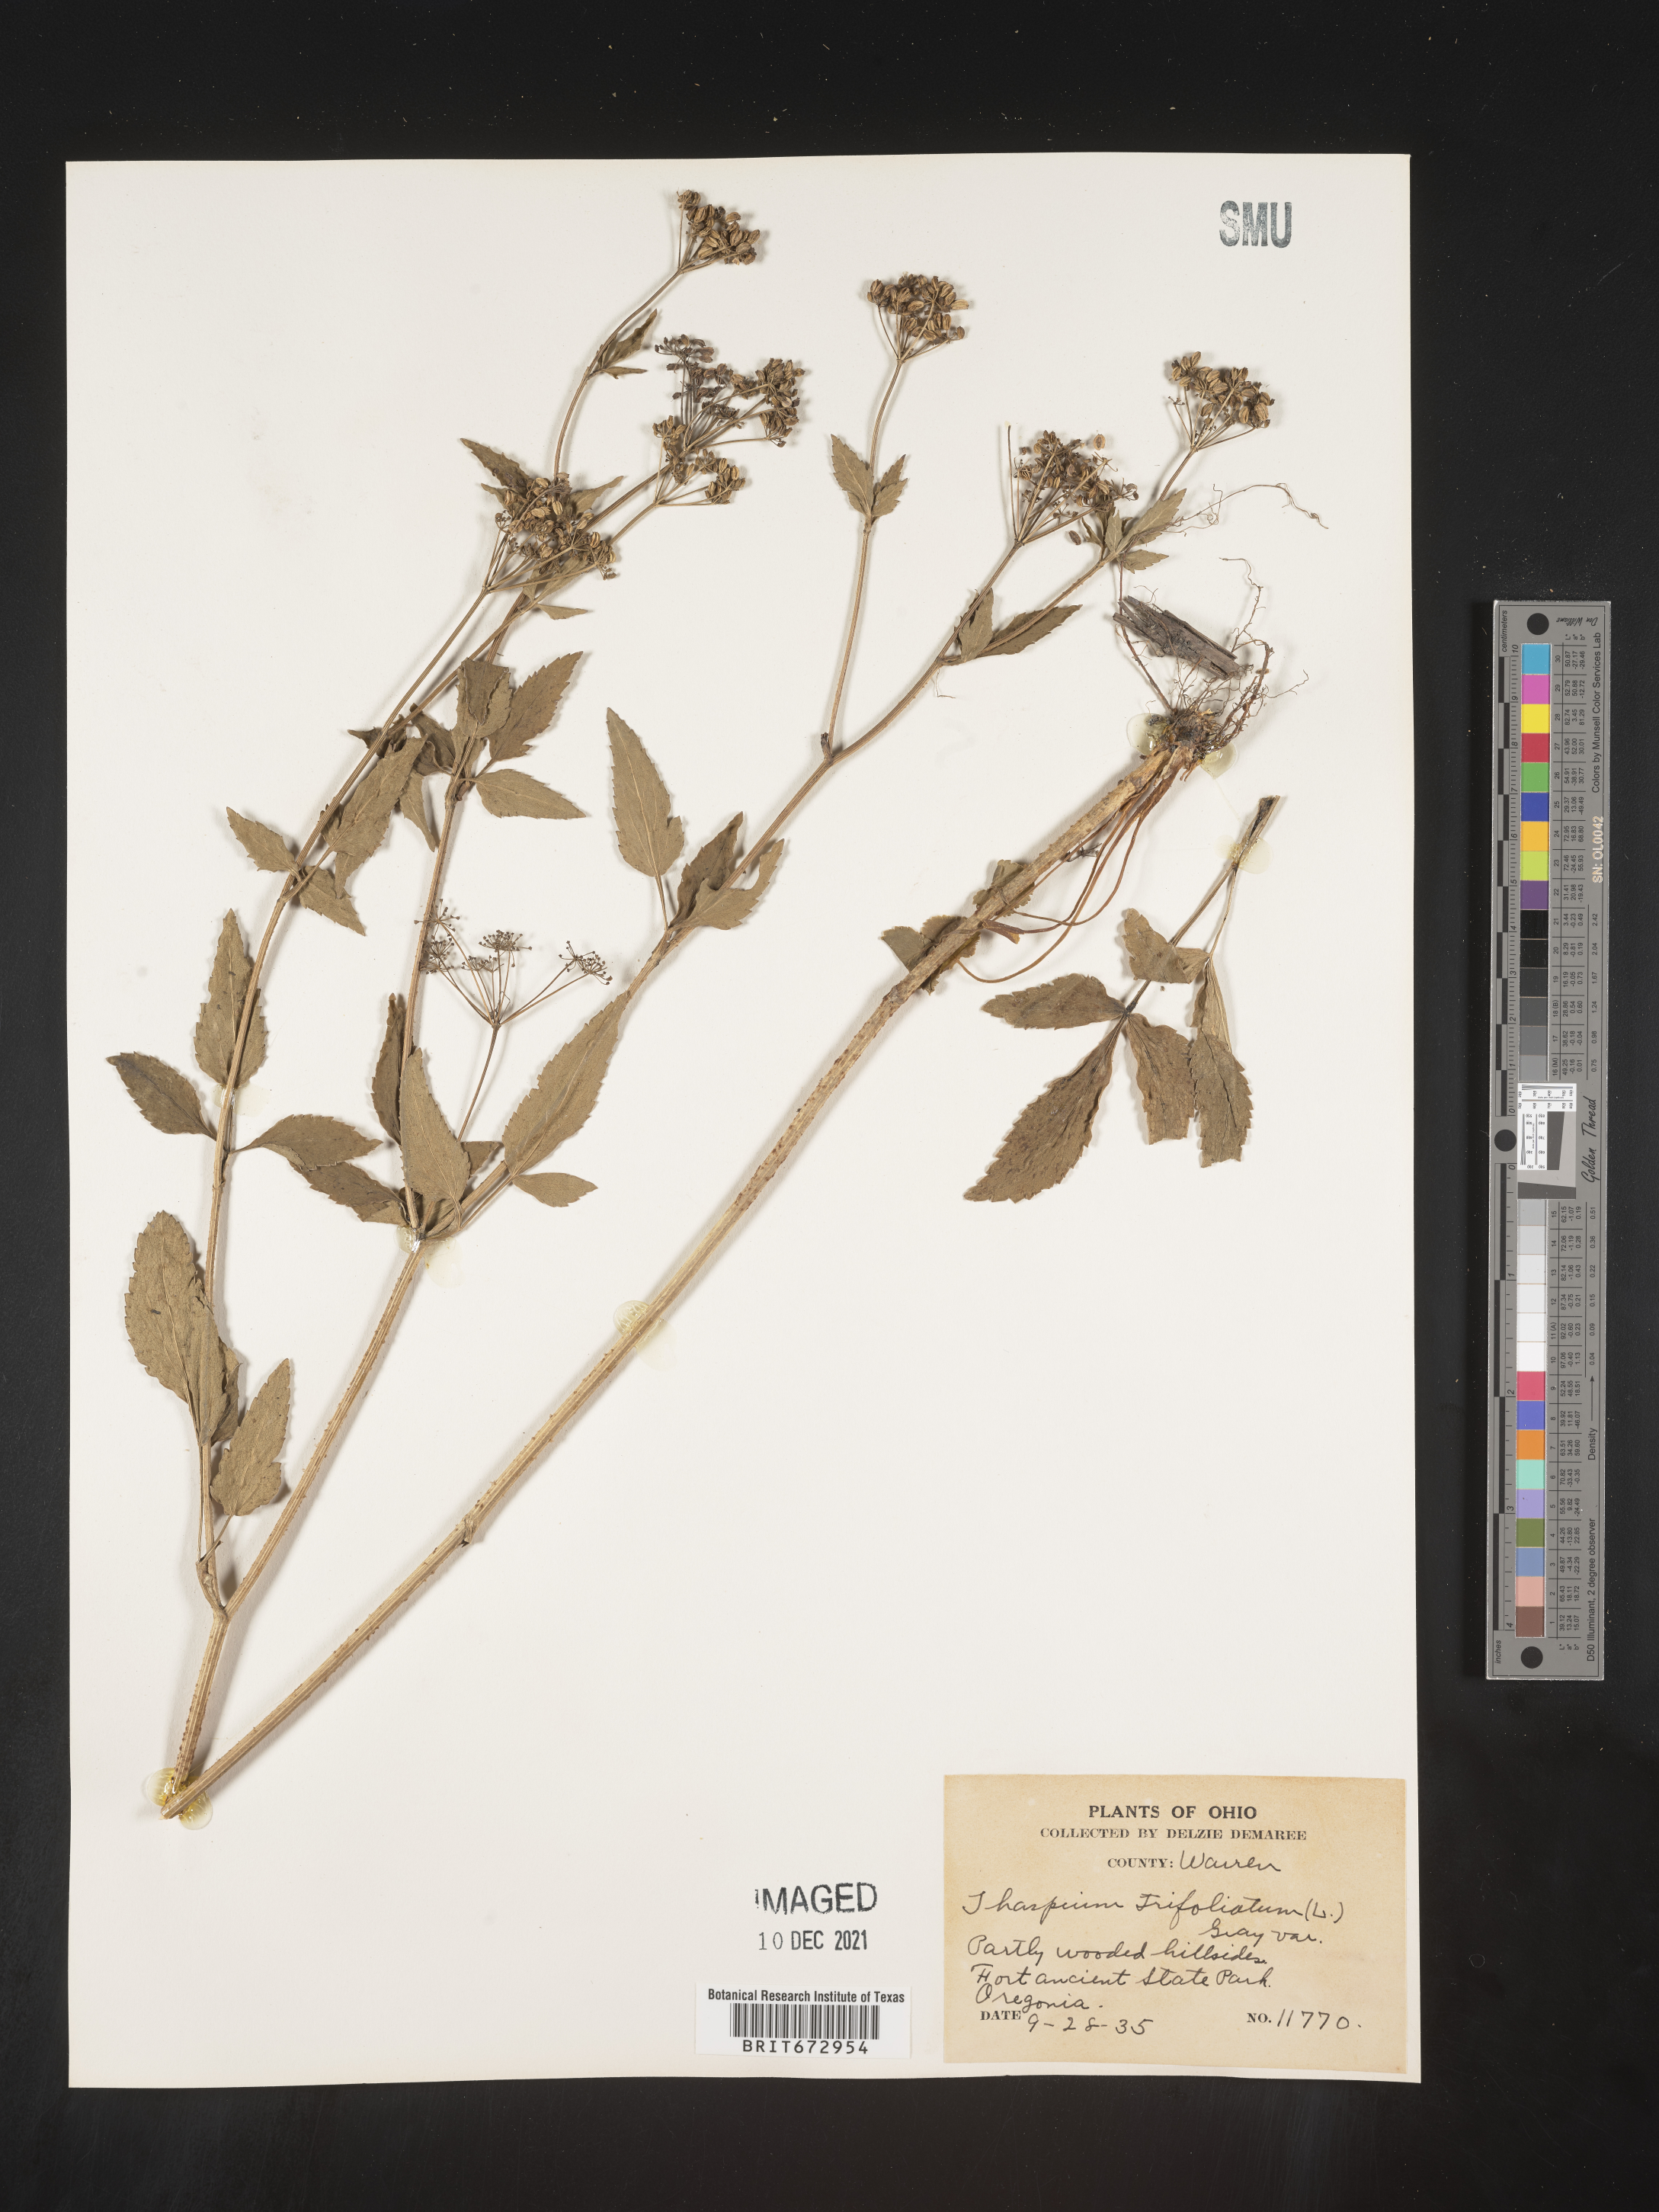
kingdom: Plantae
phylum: Tracheophyta
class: Magnoliopsida
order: Apiales
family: Apiaceae
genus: Thaspium
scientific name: Thaspium
